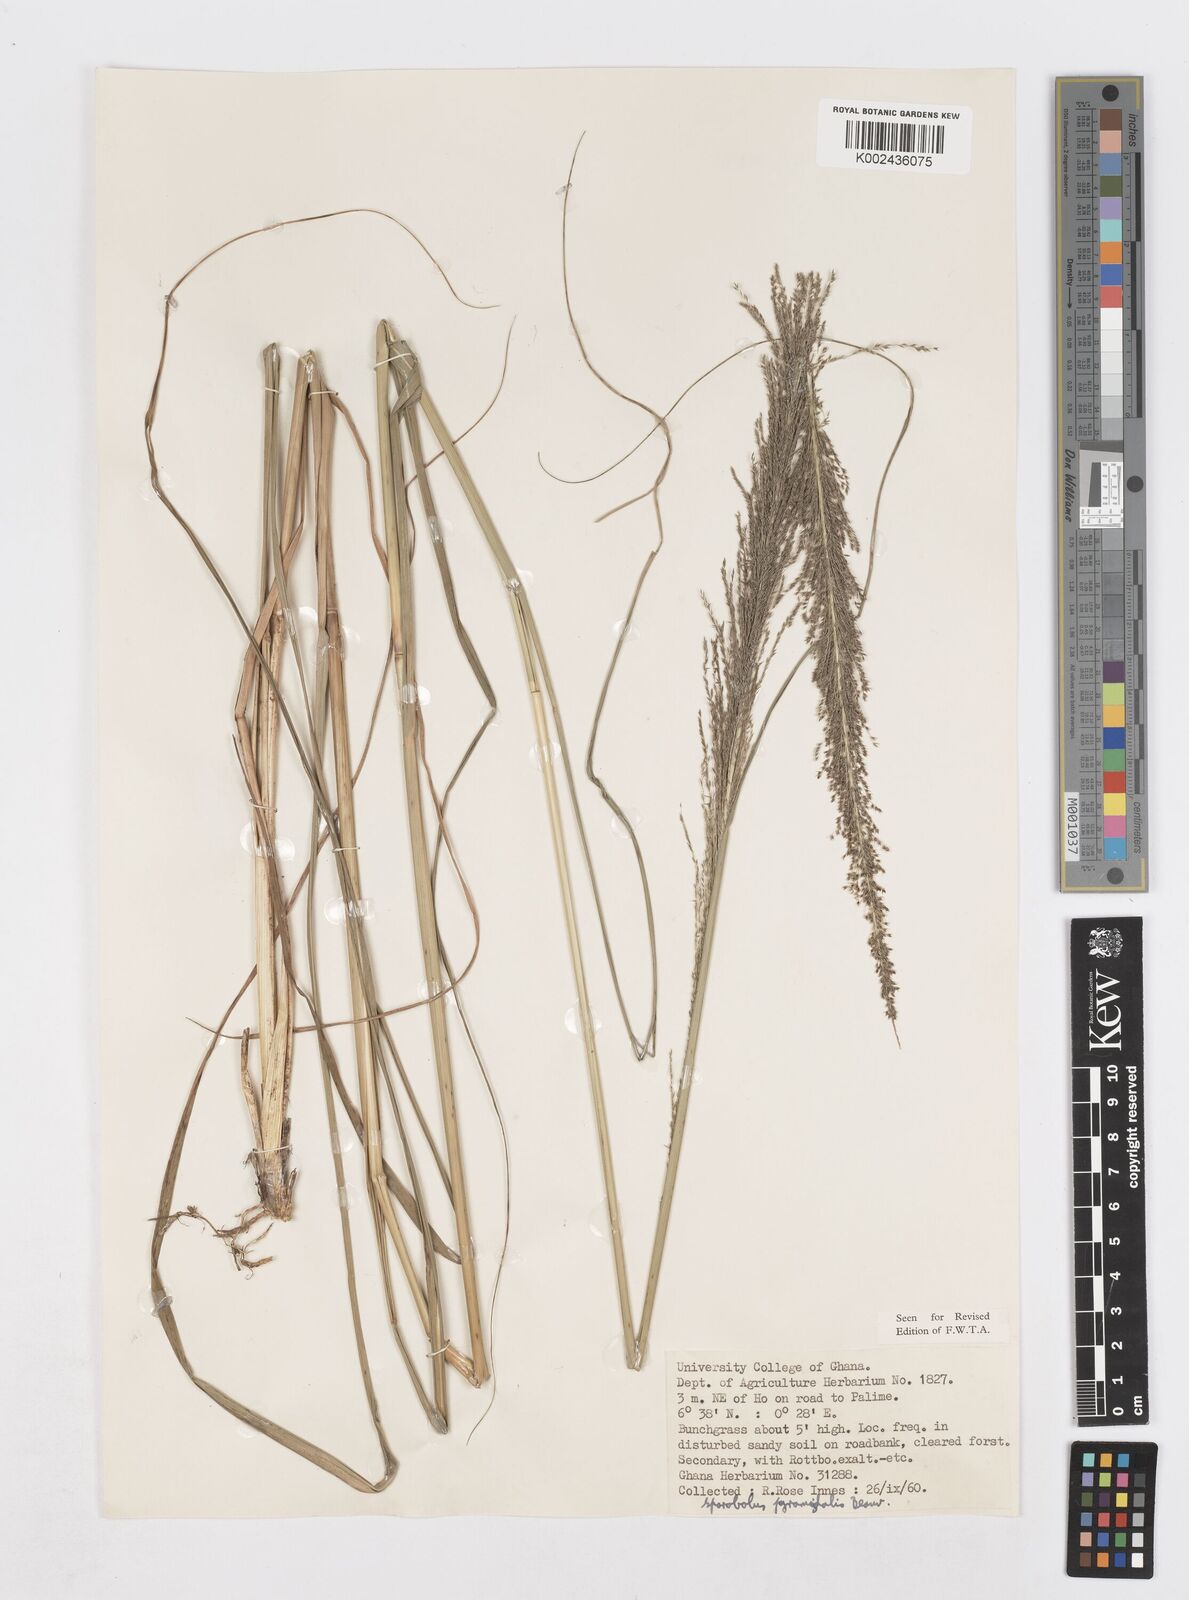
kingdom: Plantae
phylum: Tracheophyta
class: Liliopsida
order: Poales
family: Poaceae
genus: Sporobolus
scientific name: Sporobolus pyramidalis
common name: West indian dropseed
